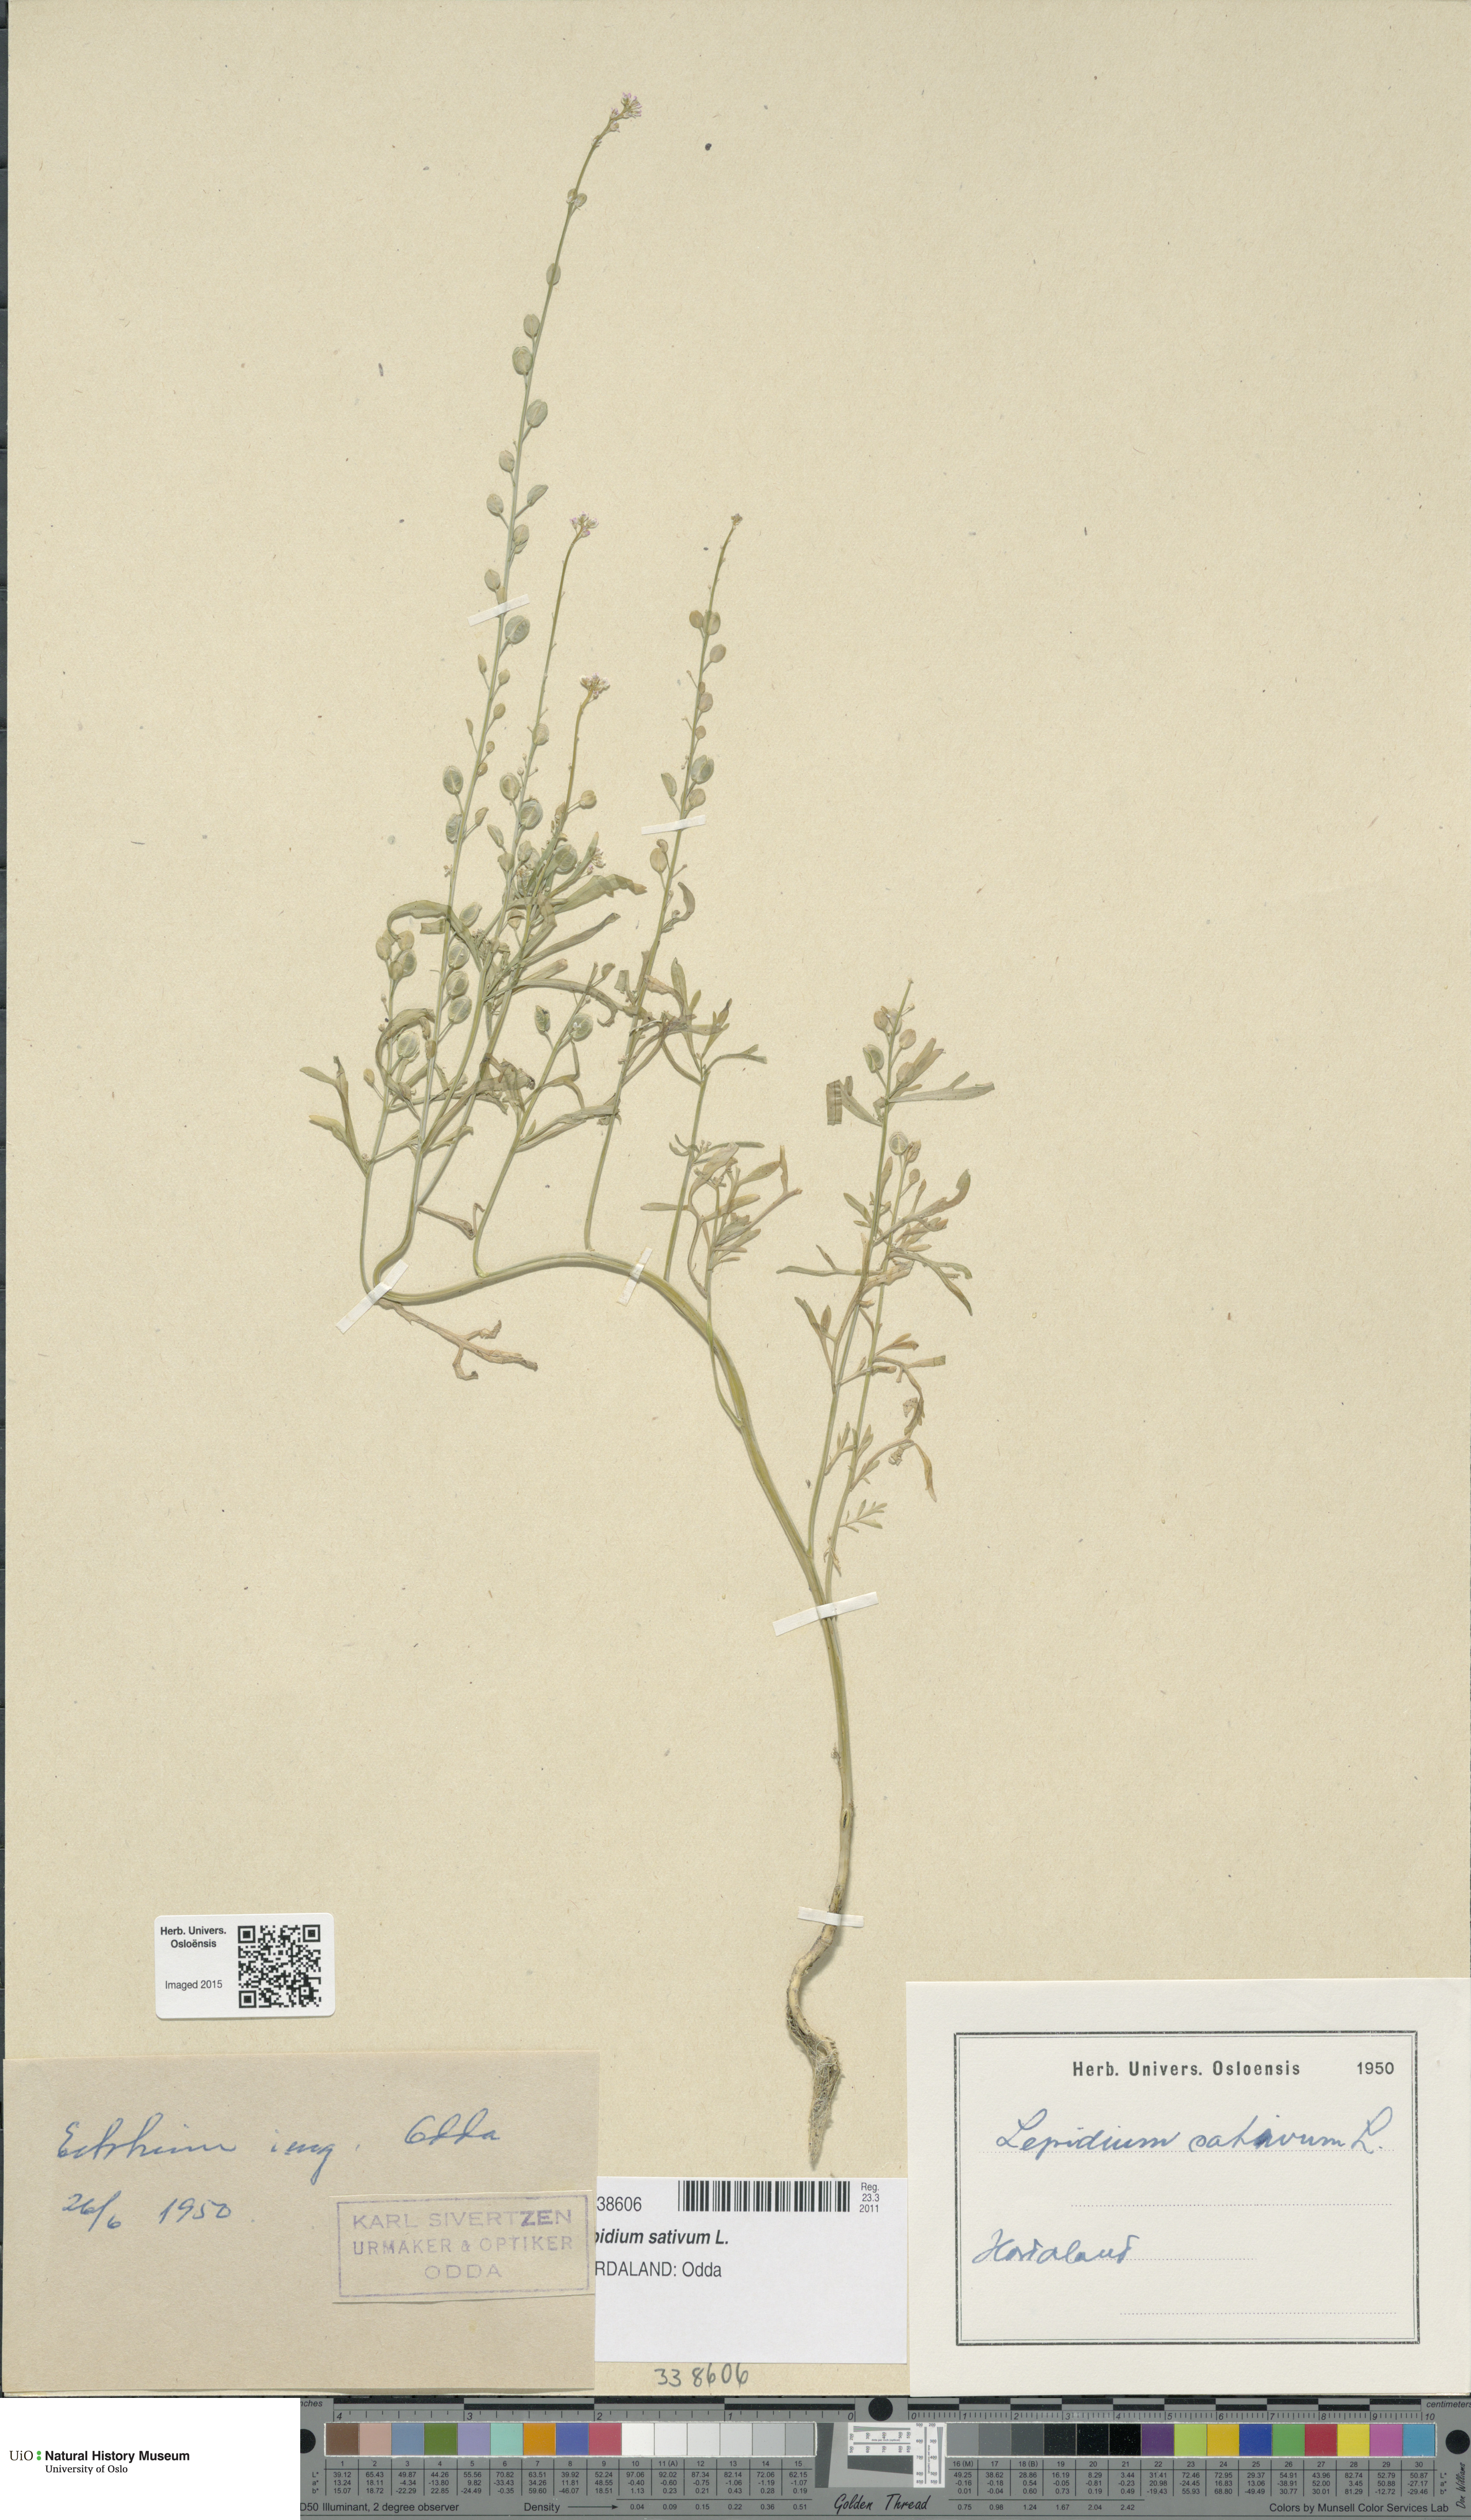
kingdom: Plantae
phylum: Tracheophyta
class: Magnoliopsida
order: Brassicales
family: Brassicaceae
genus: Lepidium
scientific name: Lepidium sativum
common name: Garden cress
